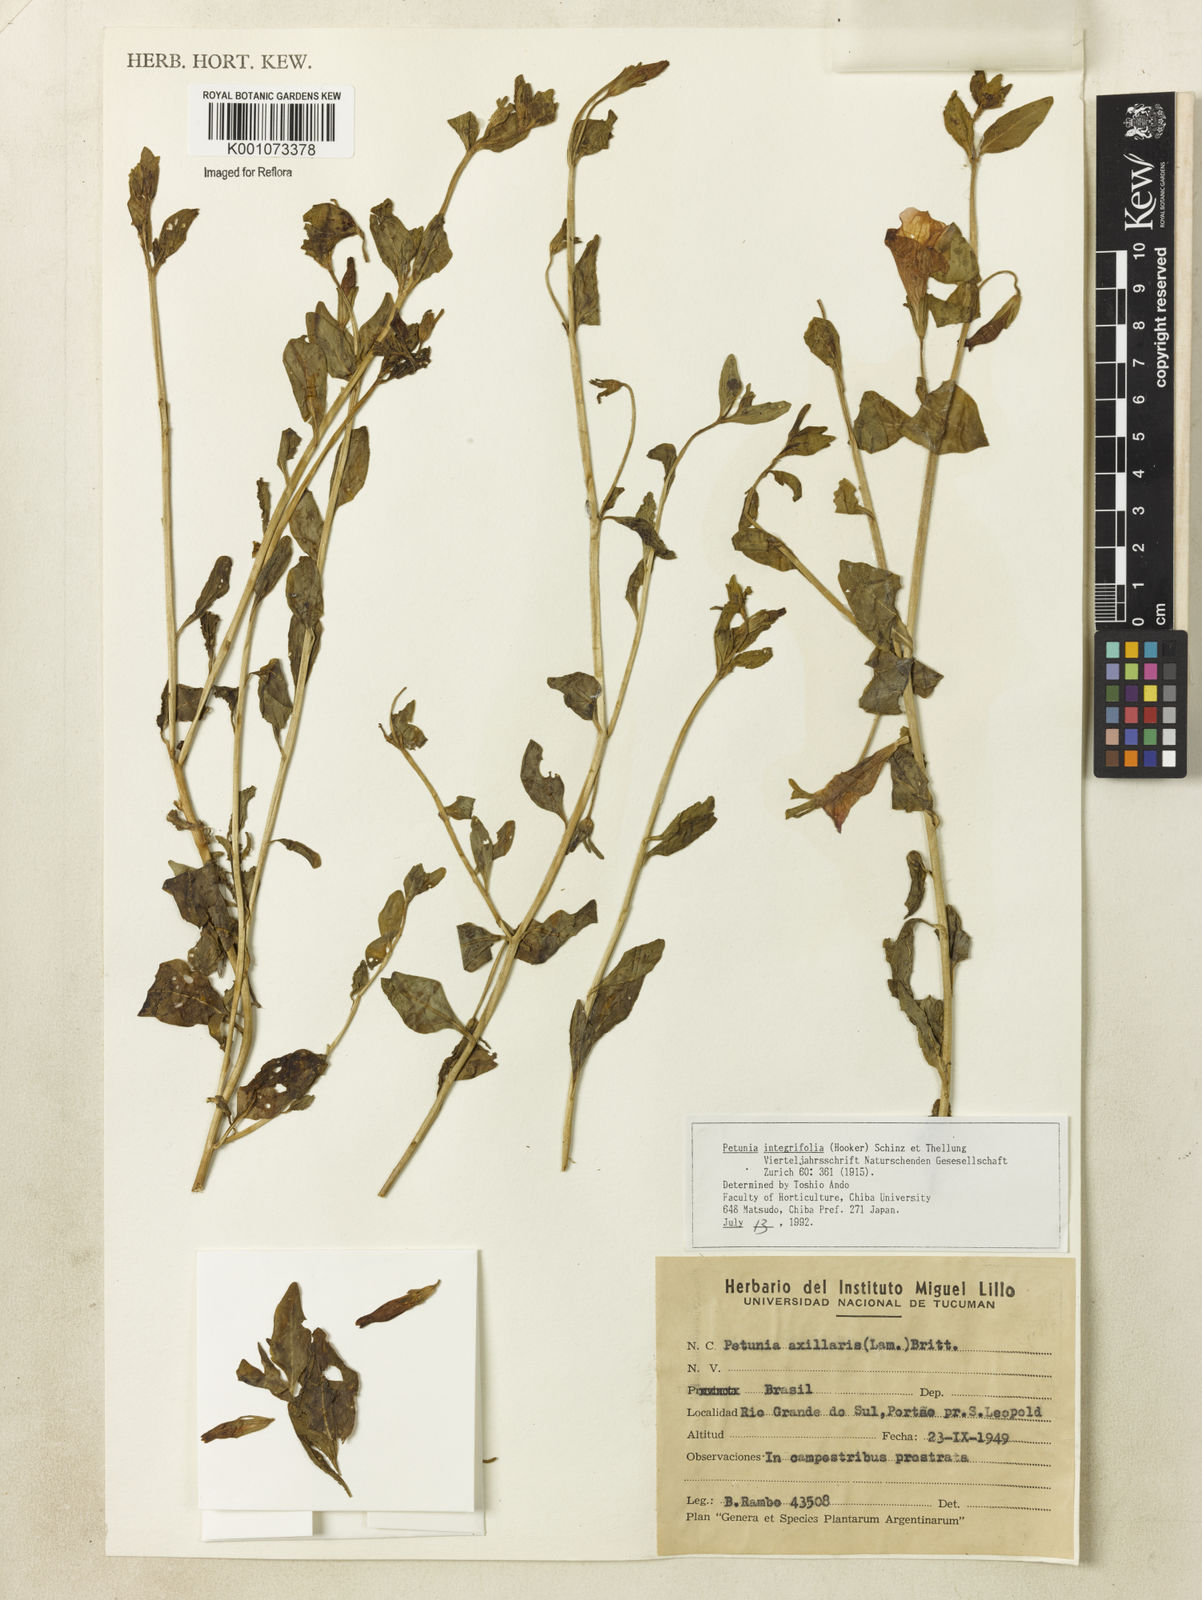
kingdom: Plantae
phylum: Tracheophyta
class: Magnoliopsida
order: Solanales
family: Solanaceae
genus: Petunia
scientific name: Petunia integrifolia
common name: Violet-flower petunia
